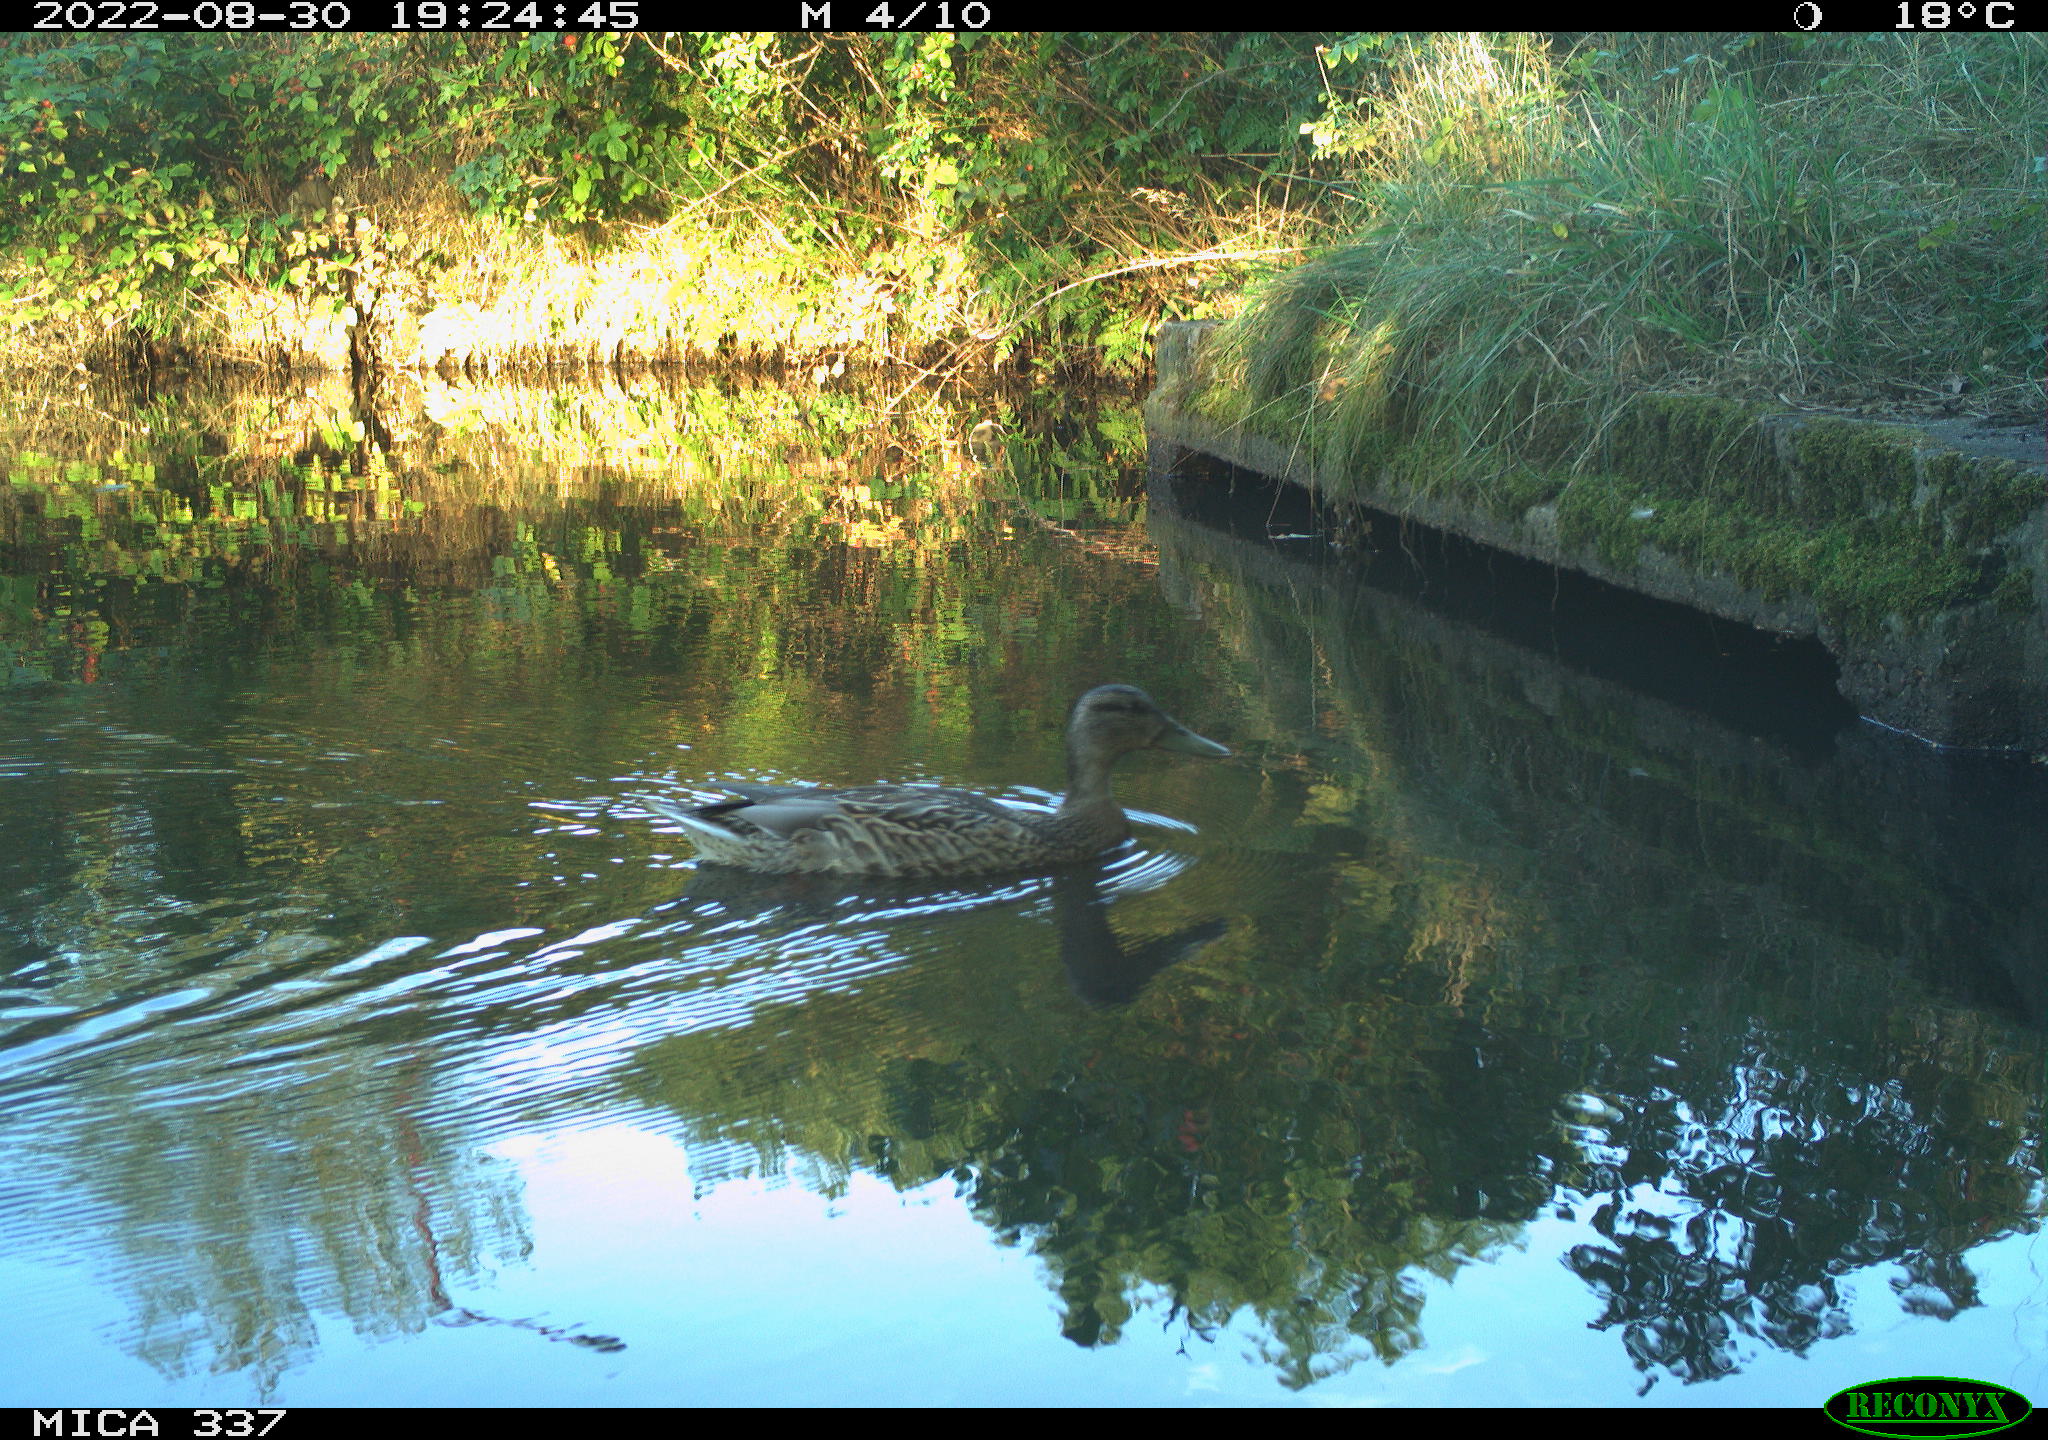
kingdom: Animalia
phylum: Chordata
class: Aves
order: Anseriformes
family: Anatidae
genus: Anas
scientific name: Anas platyrhynchos
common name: Mallard
